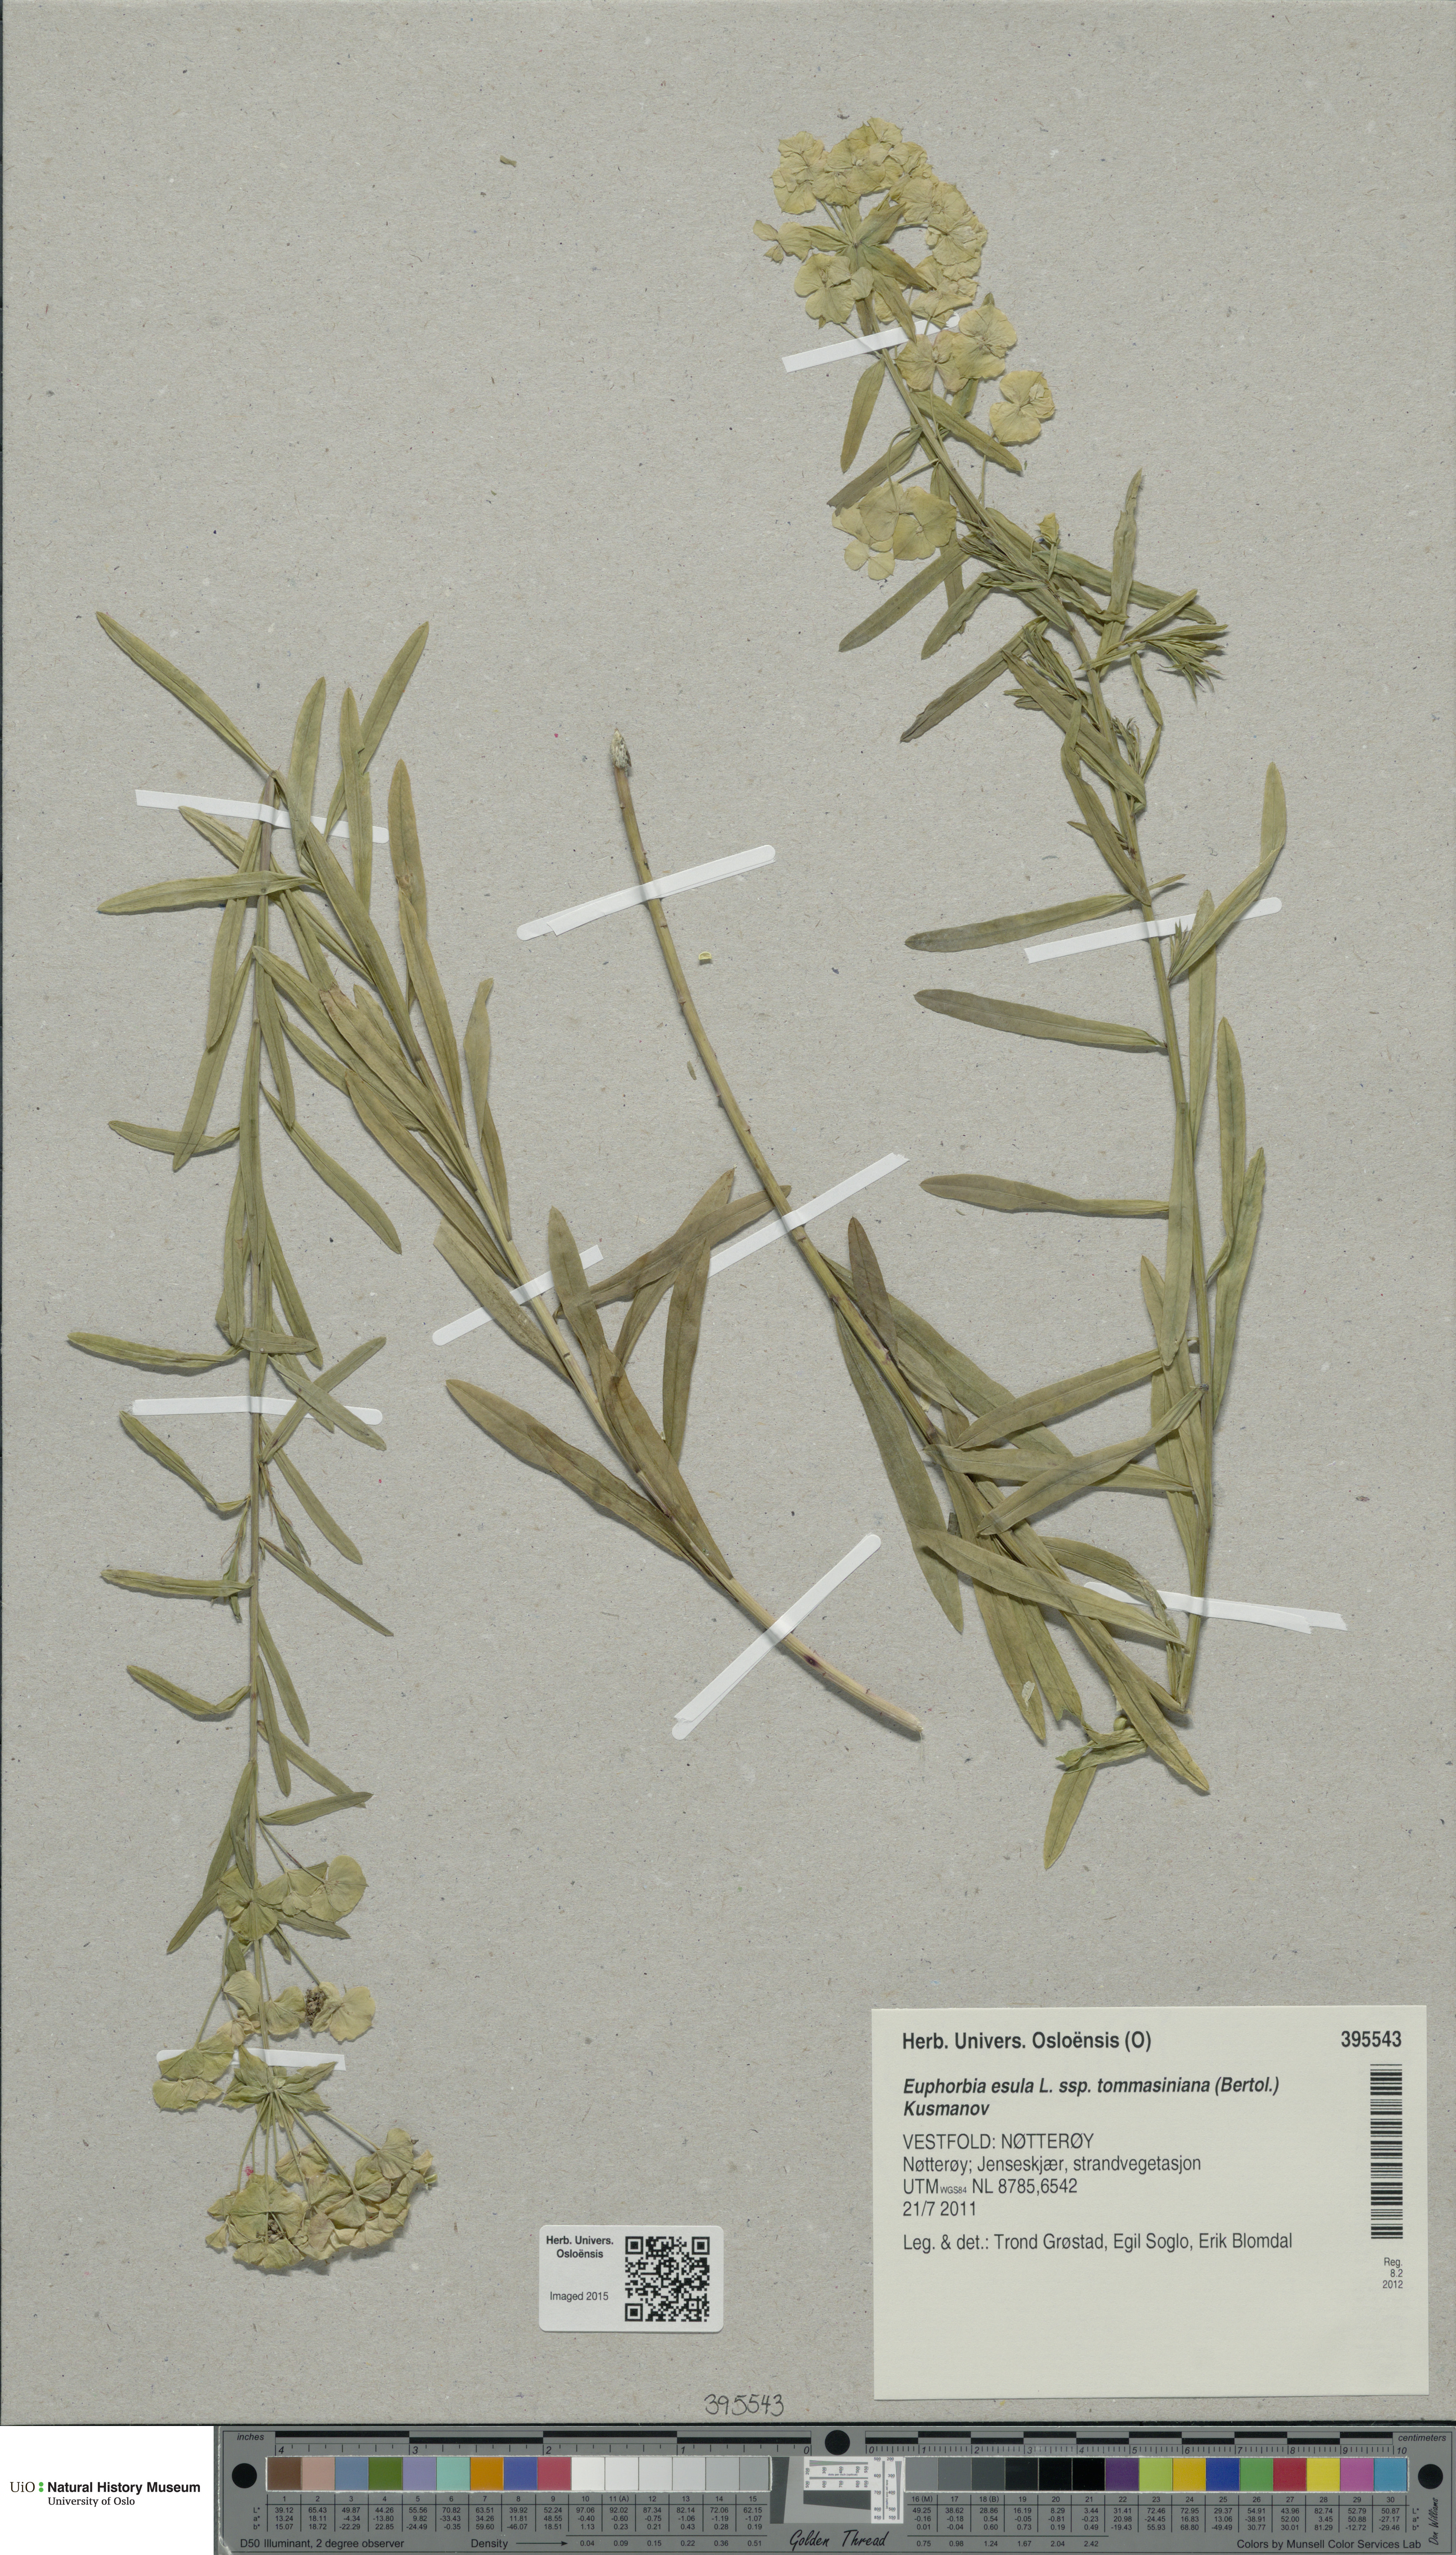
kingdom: Plantae
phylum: Tracheophyta
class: Magnoliopsida
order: Malpighiales
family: Euphorbiaceae
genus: Euphorbia
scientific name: Euphorbia tommasiniana
